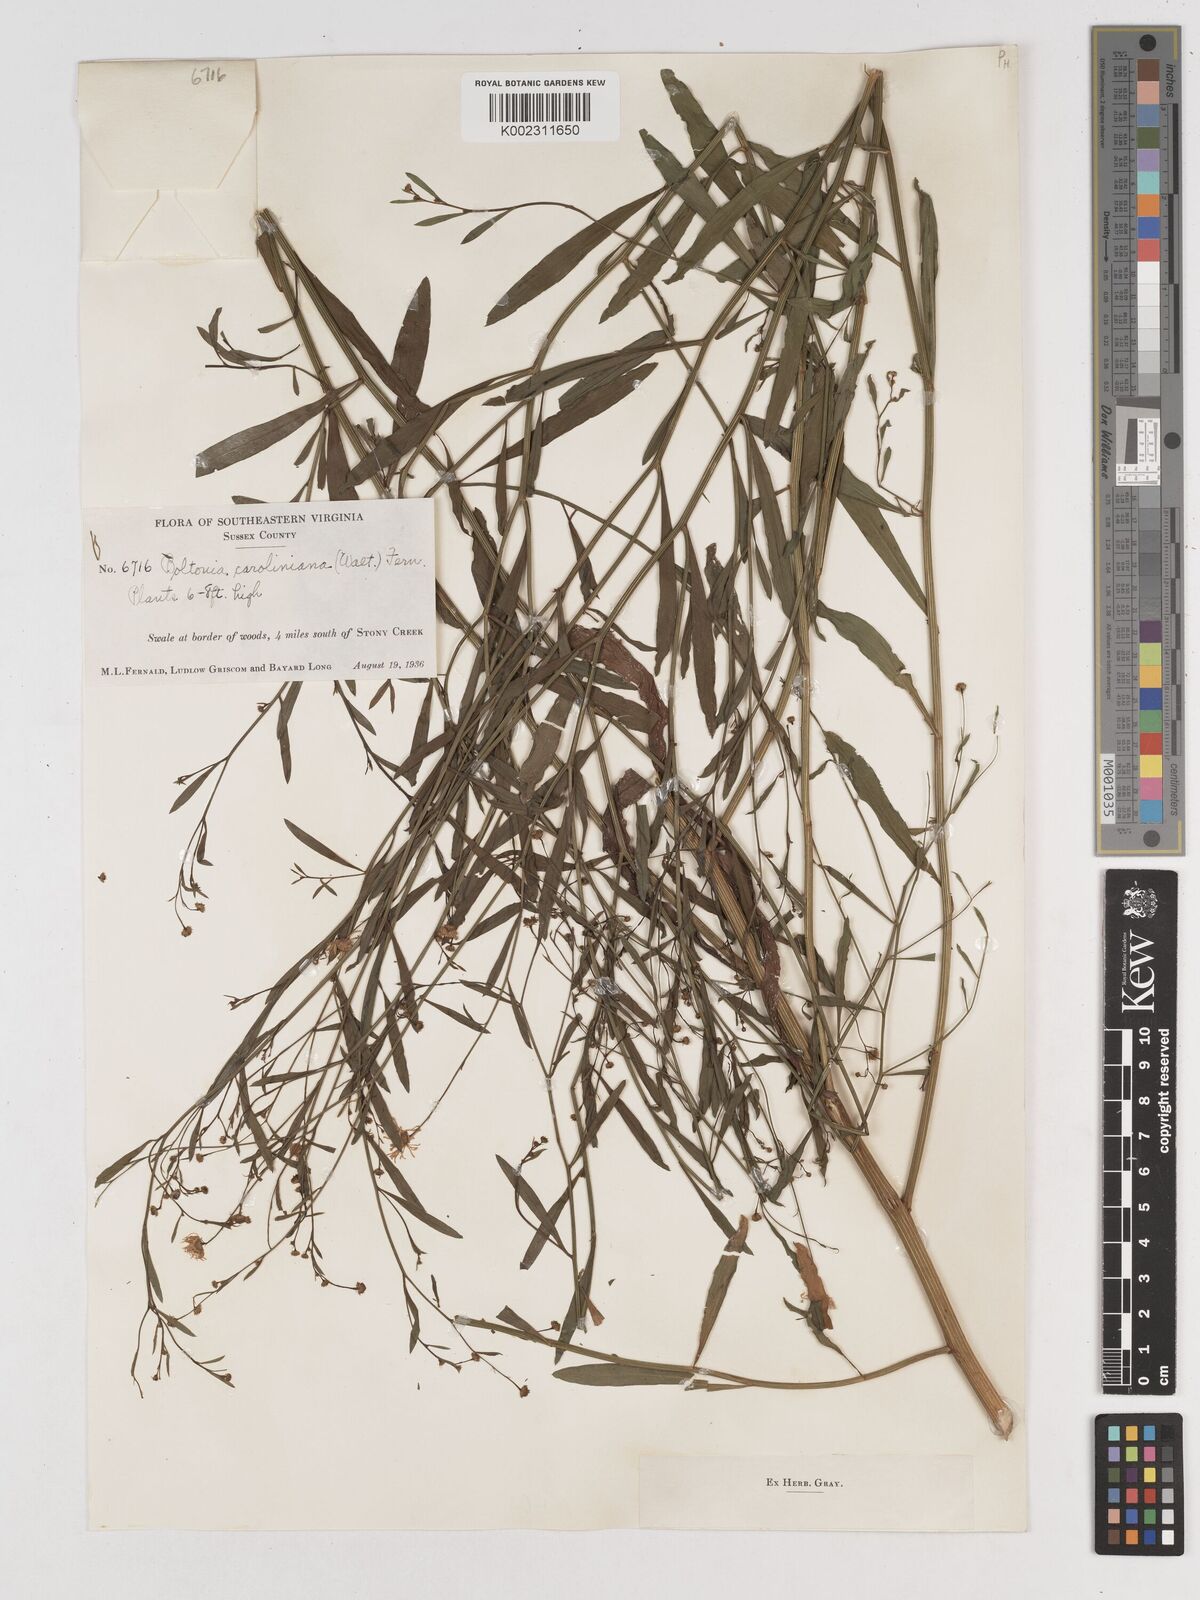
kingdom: Plantae
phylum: Tracheophyta
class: Magnoliopsida
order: Asterales
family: Asteraceae
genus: Boltonia
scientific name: Boltonia caroliniana
